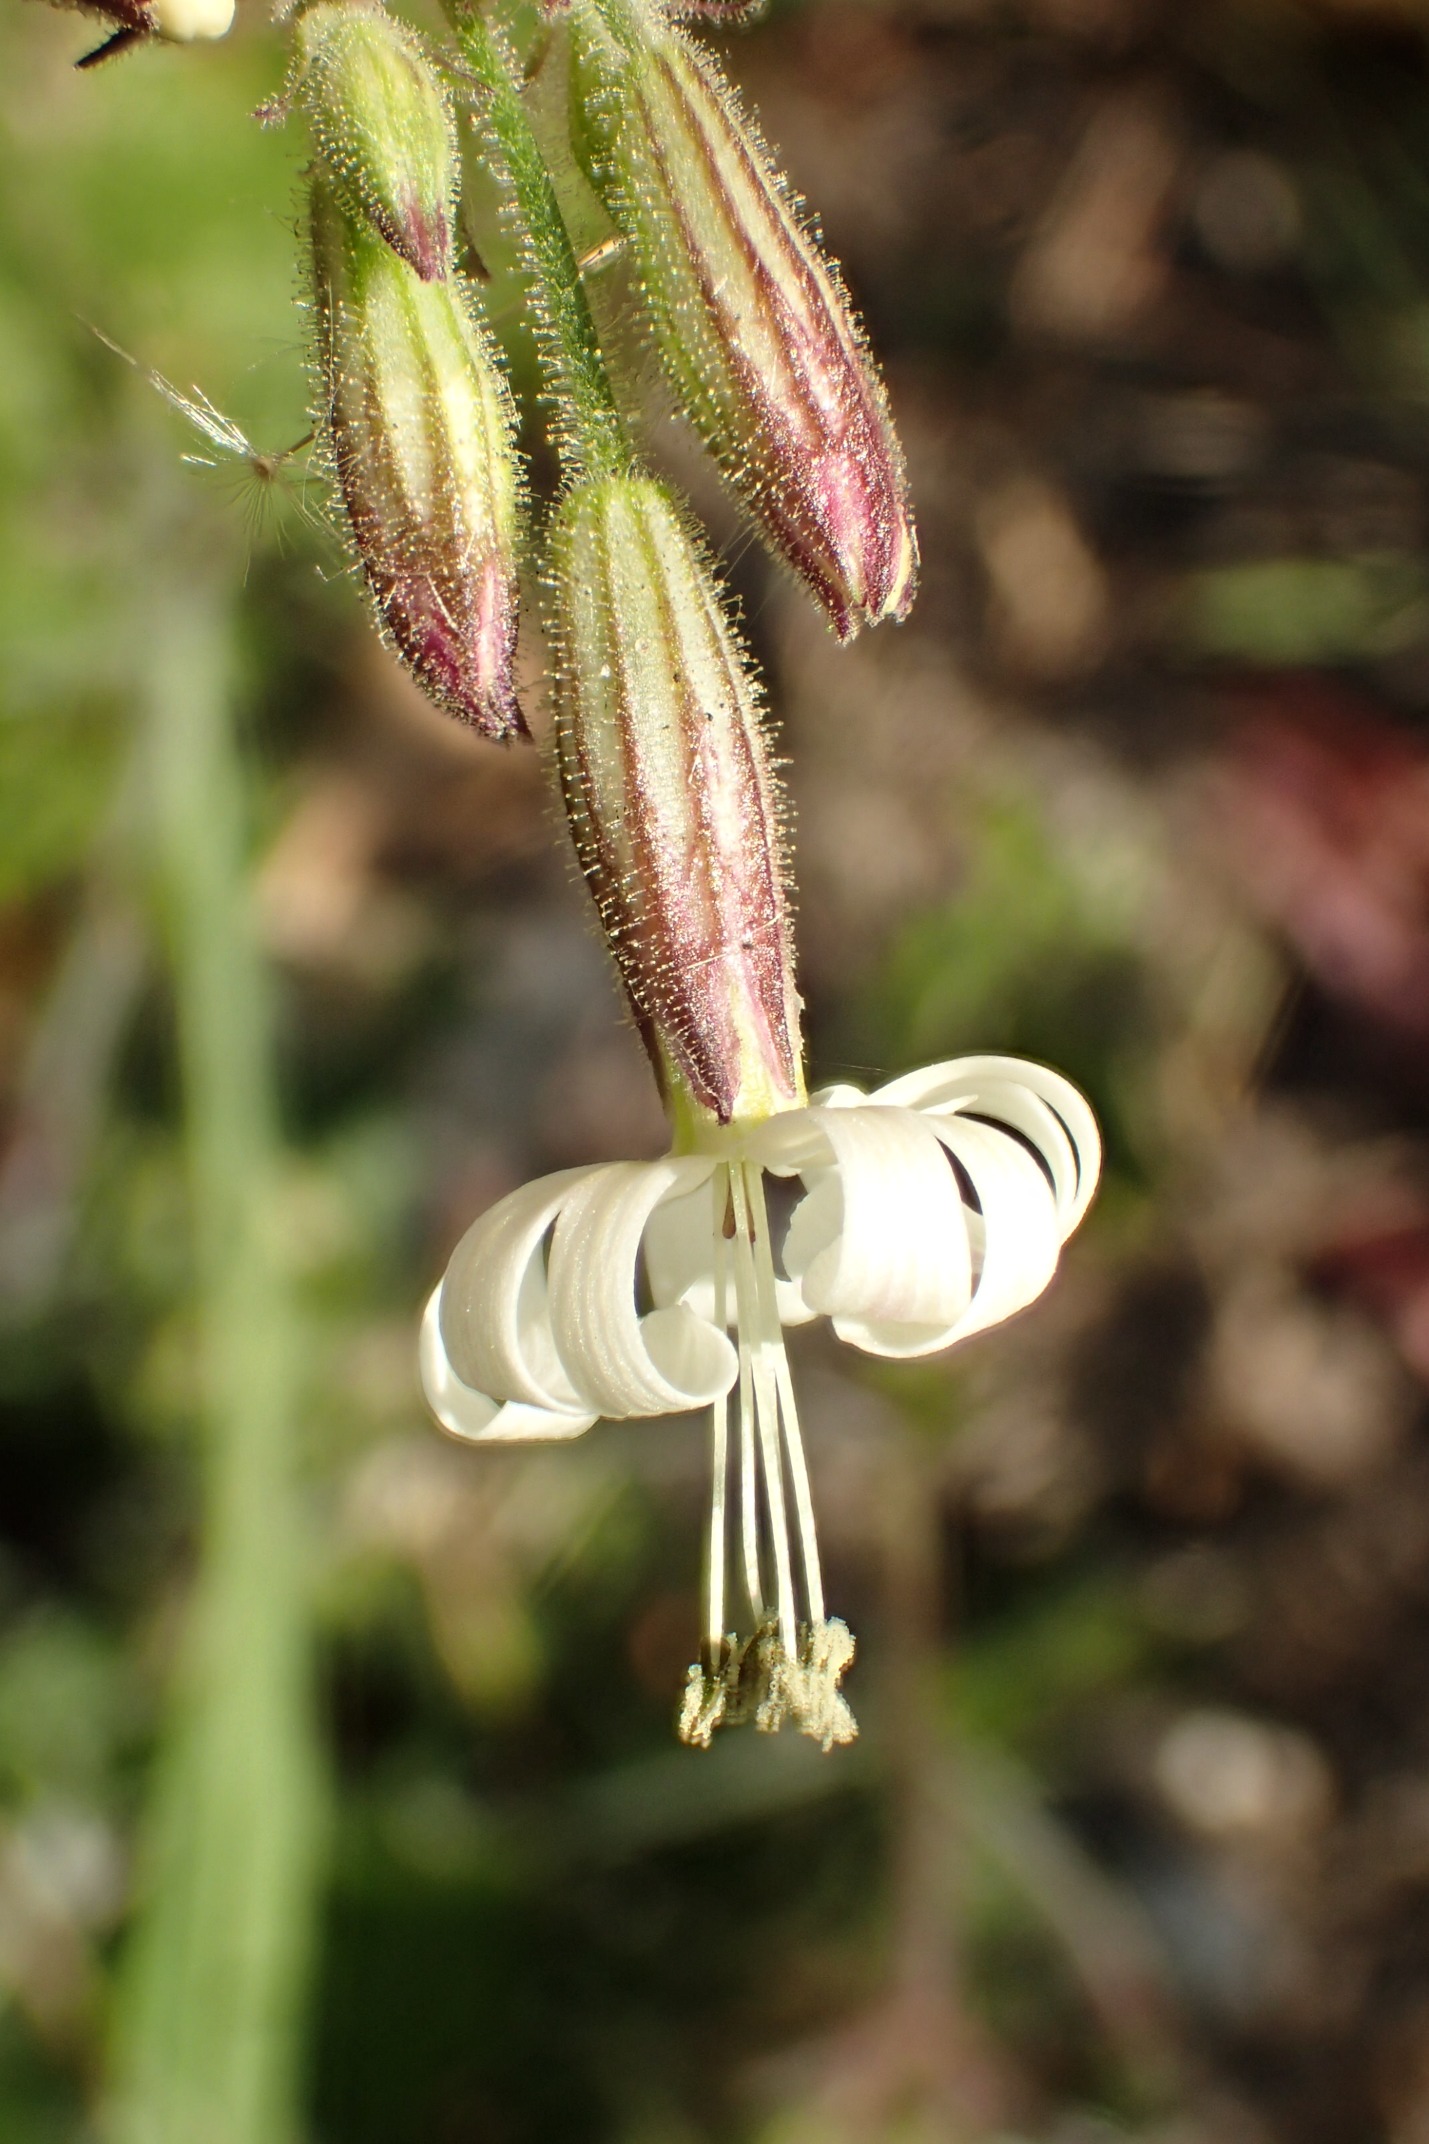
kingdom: Plantae
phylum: Tracheophyta
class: Magnoliopsida
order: Caryophyllales
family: Caryophyllaceae
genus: Silene
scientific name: Silene nutans
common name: Nikkende limurt
